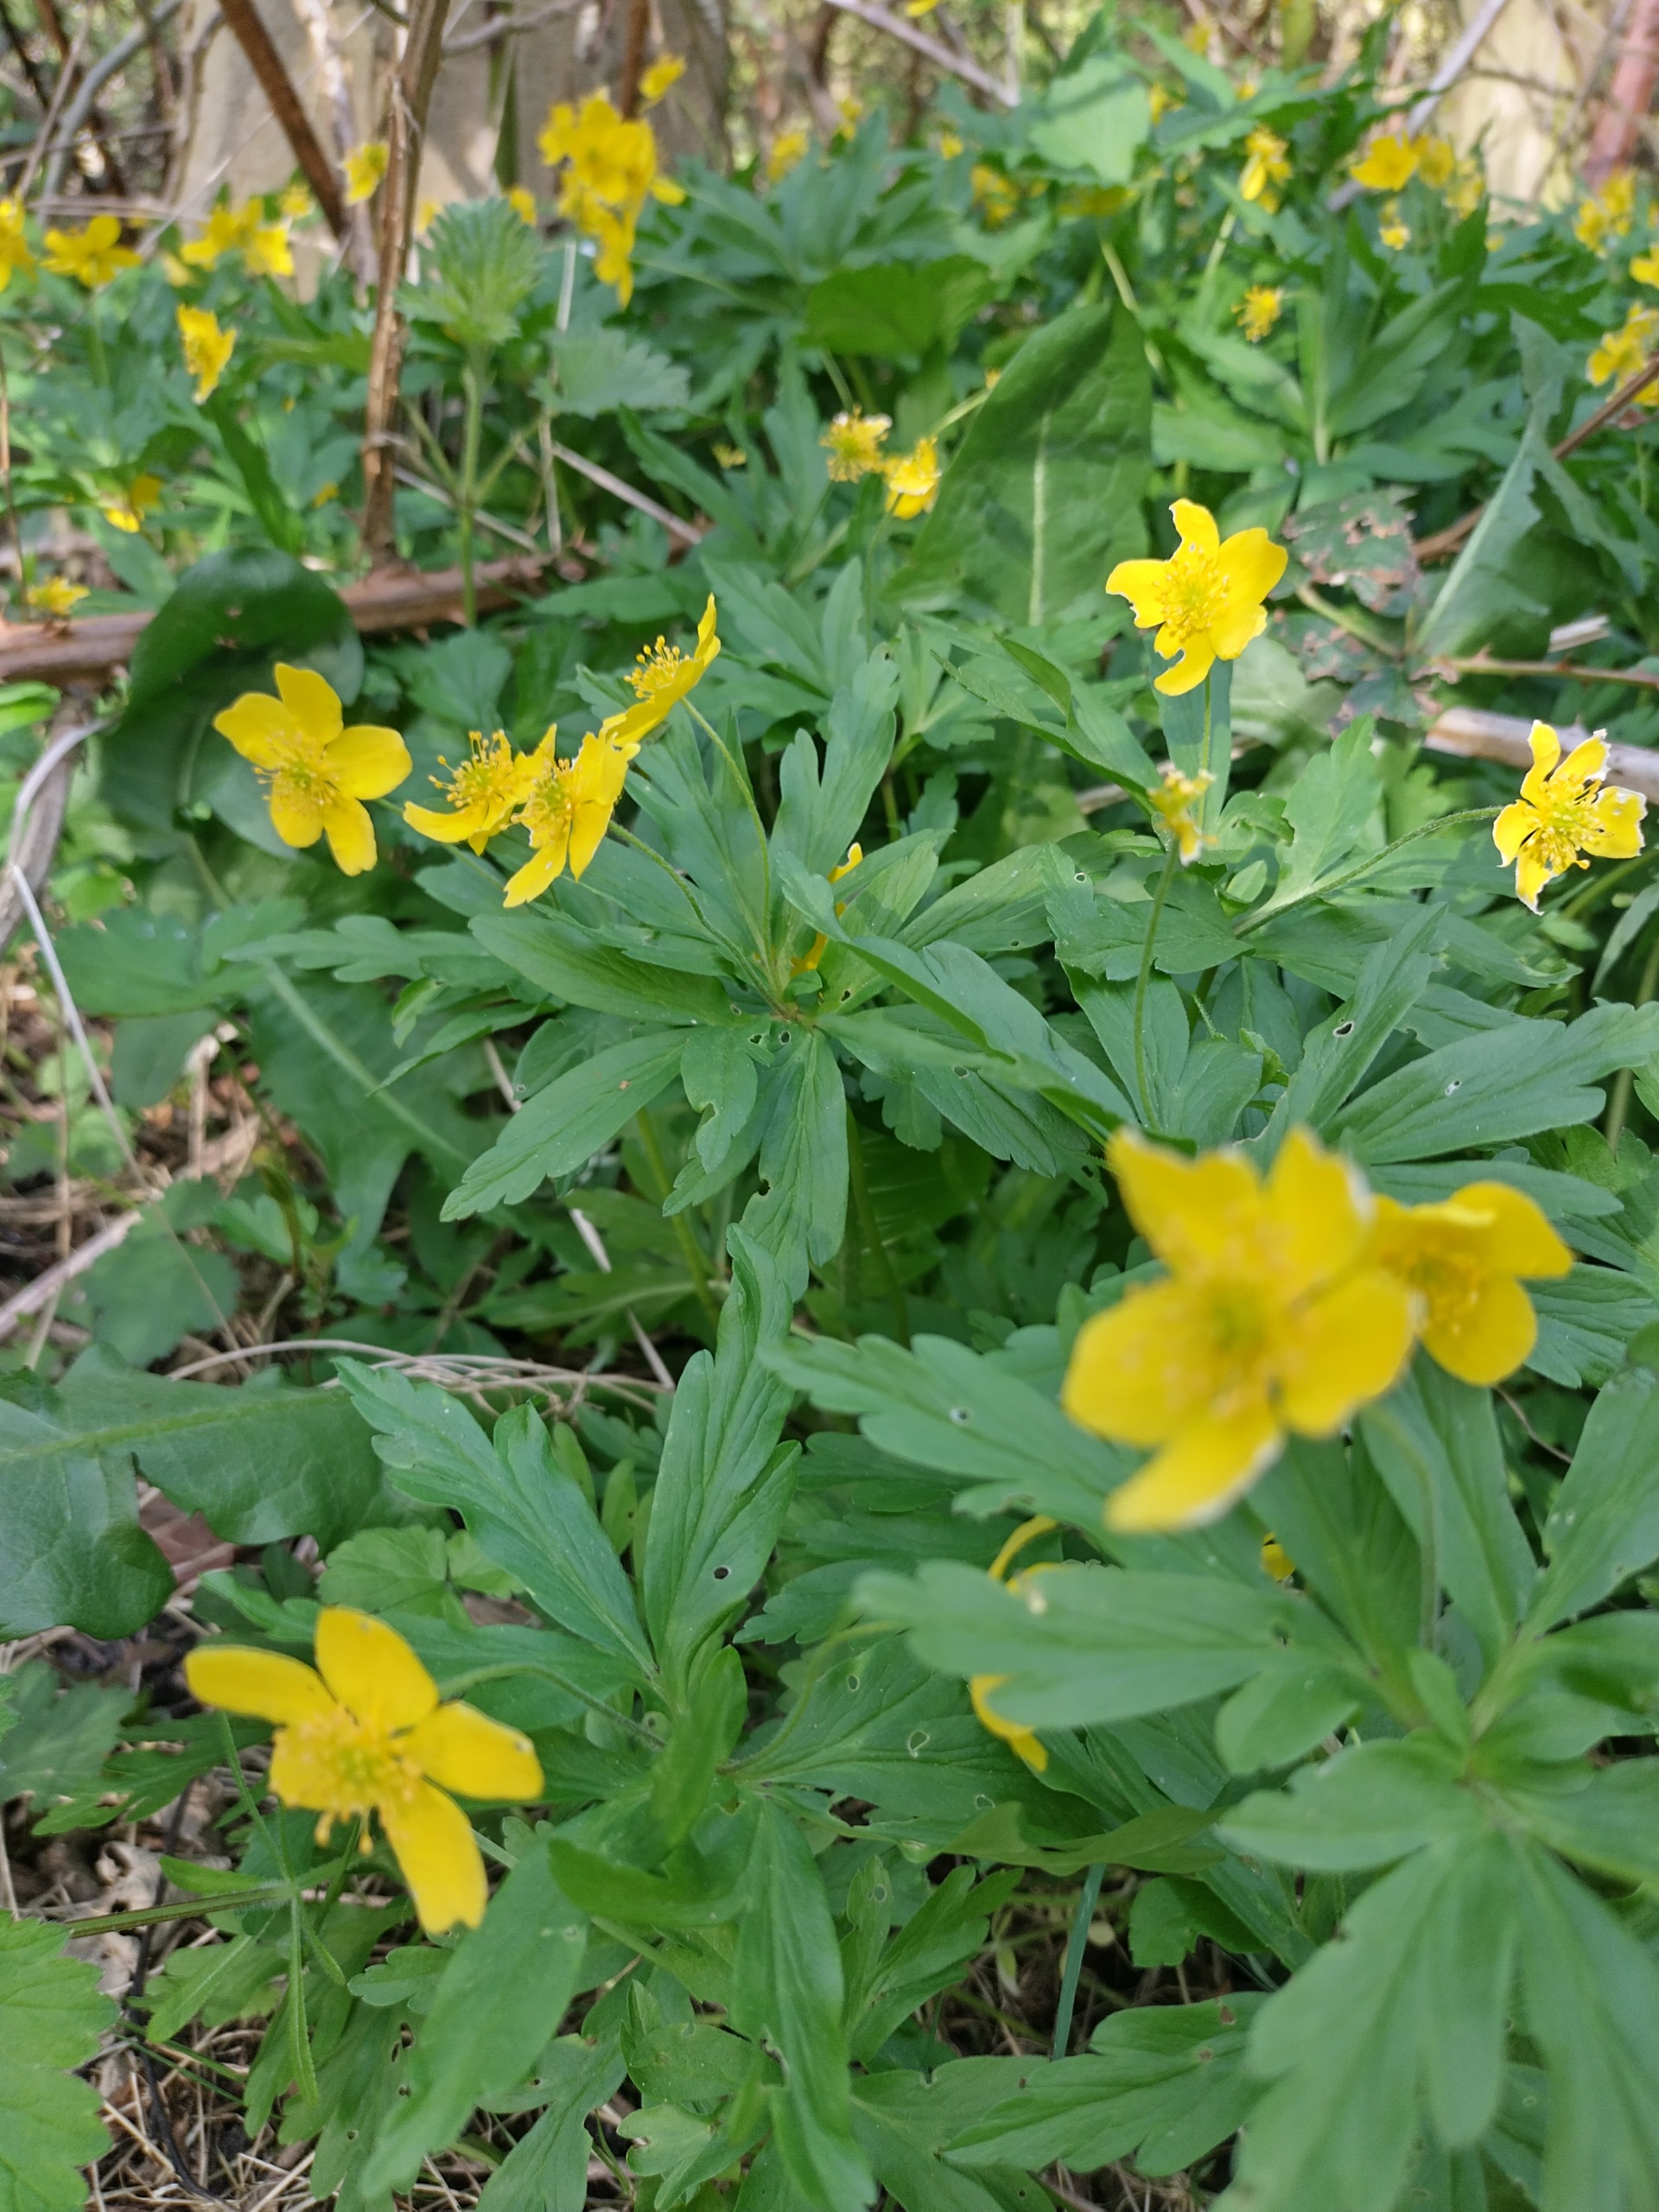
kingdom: Plantae
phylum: Tracheophyta
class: Magnoliopsida
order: Ranunculales
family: Ranunculaceae
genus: Anemone
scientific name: Anemone ranunculoides
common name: Gul anemone
